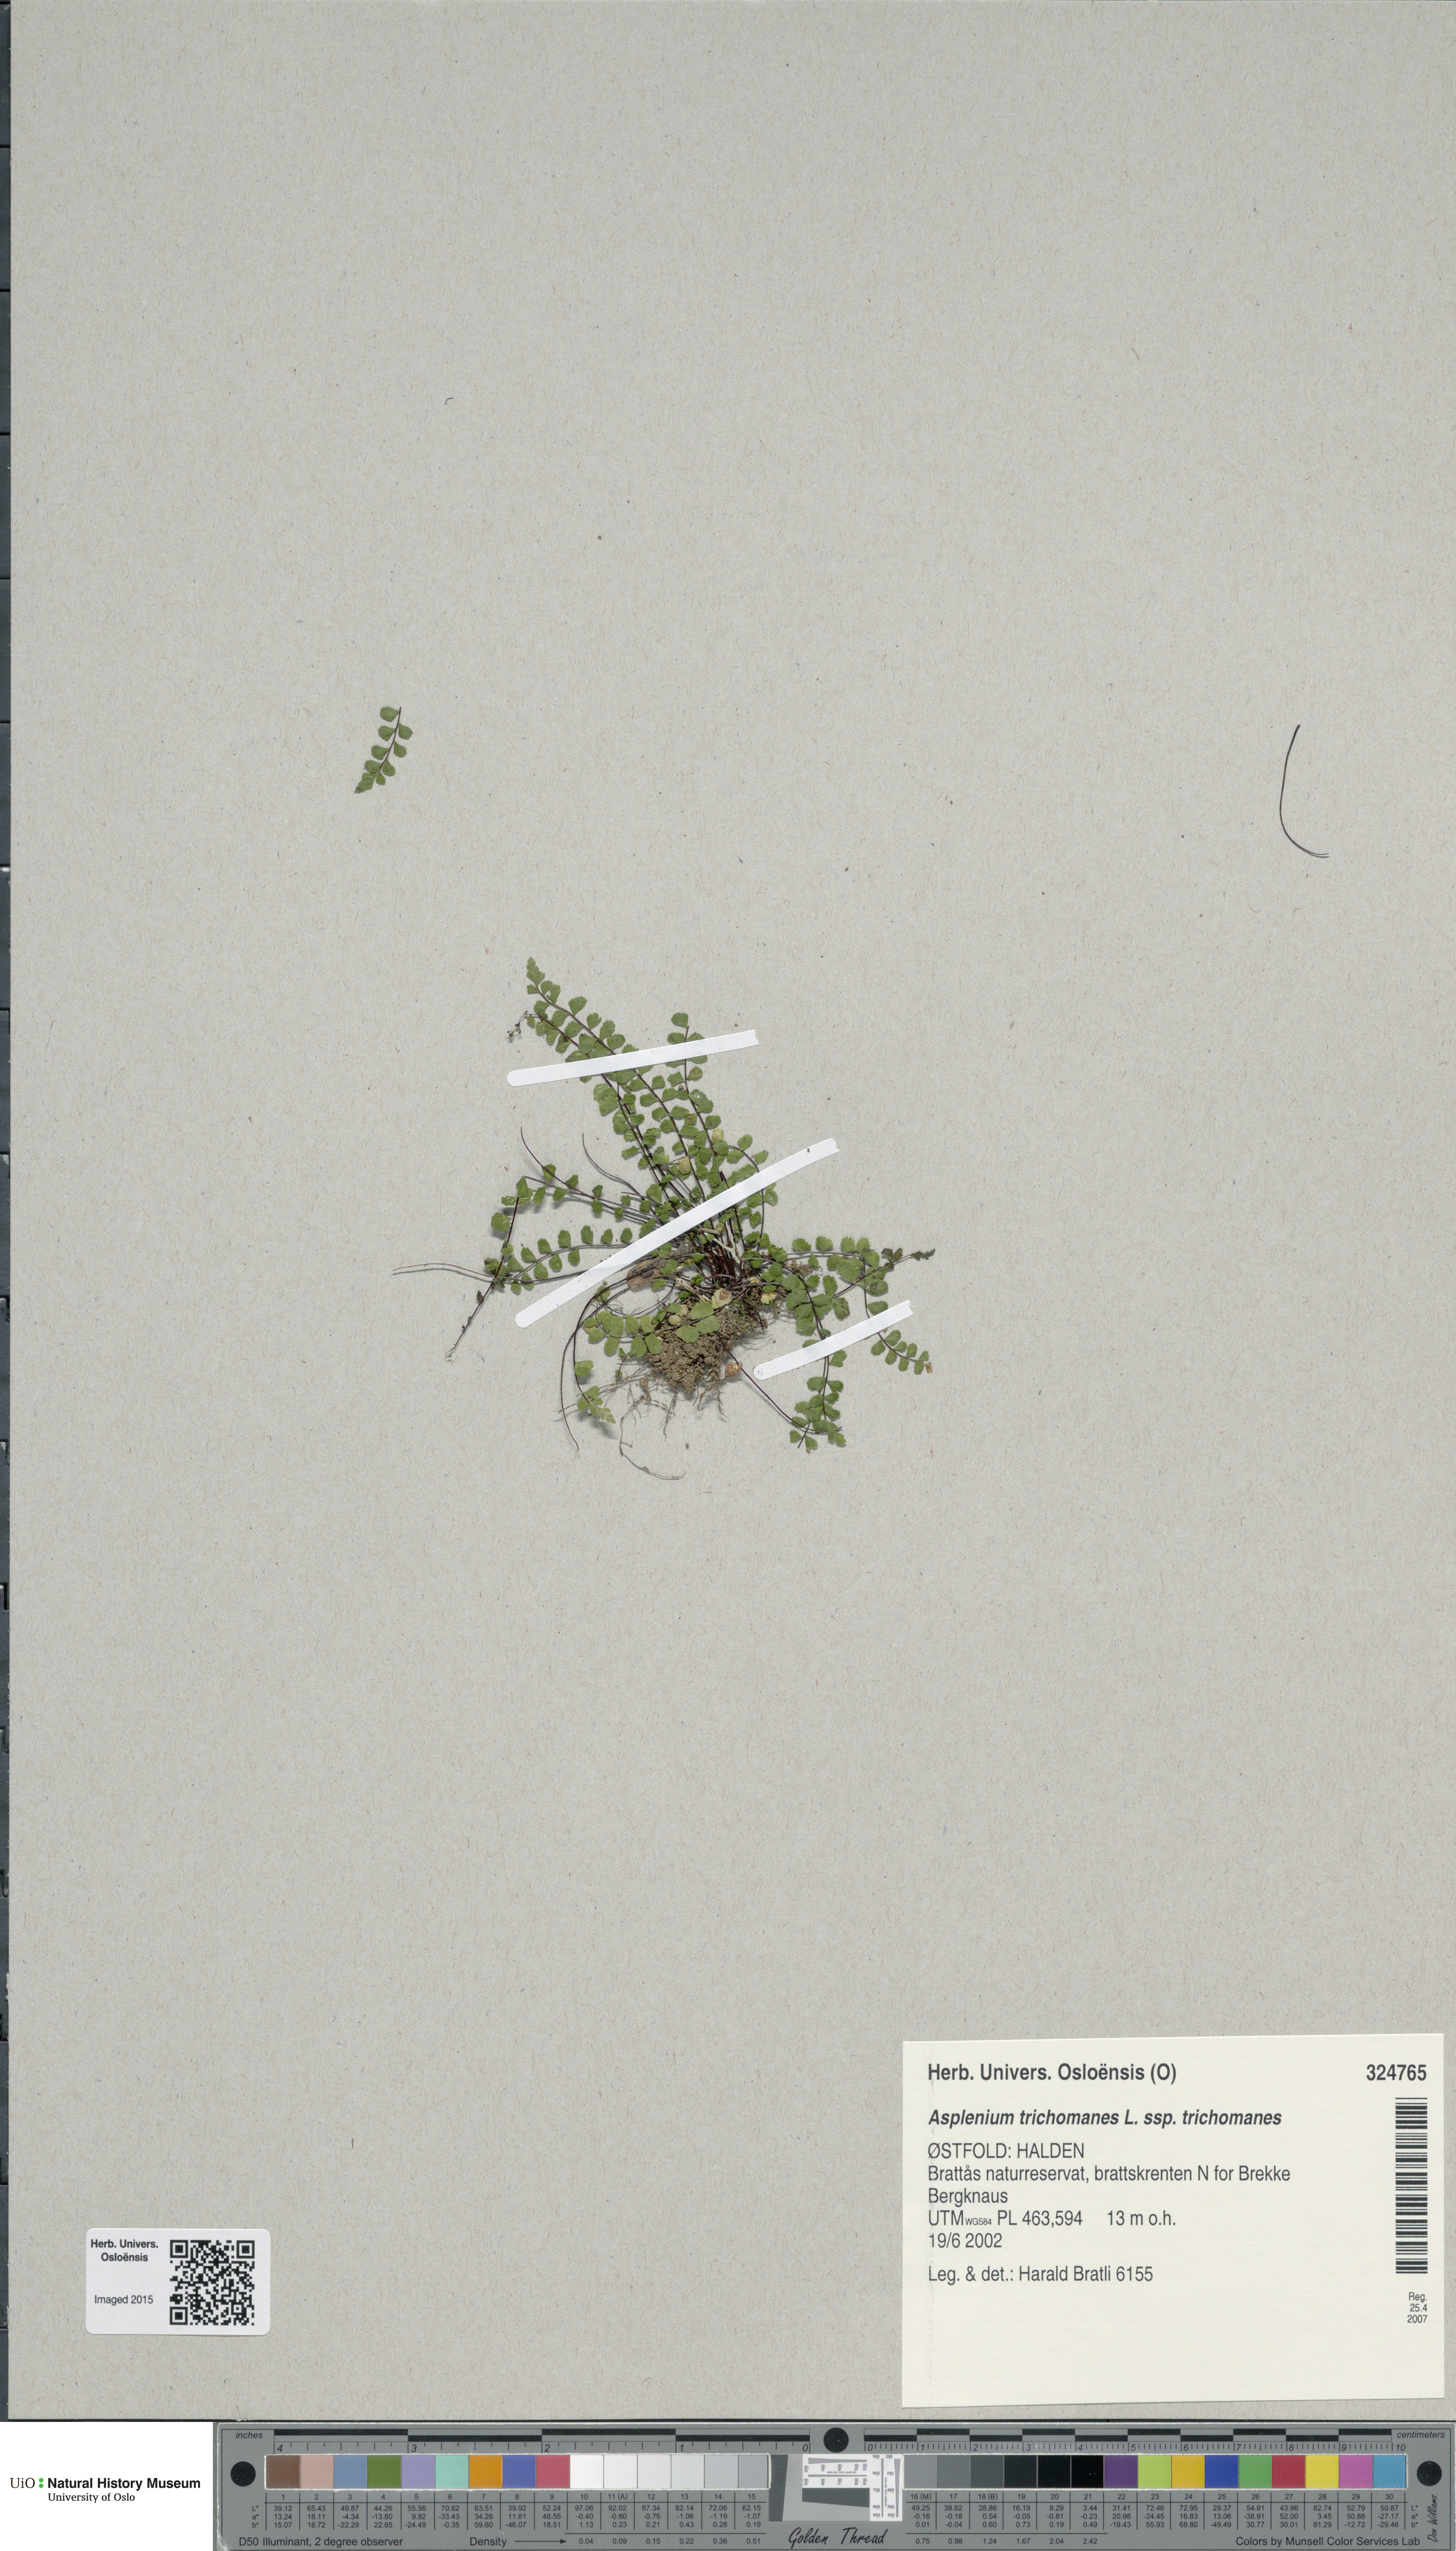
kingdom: Plantae
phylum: Tracheophyta
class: Polypodiopsida
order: Polypodiales
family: Aspleniaceae
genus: Asplenium
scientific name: Asplenium trichomanes
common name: Maidenhair spleenwort
